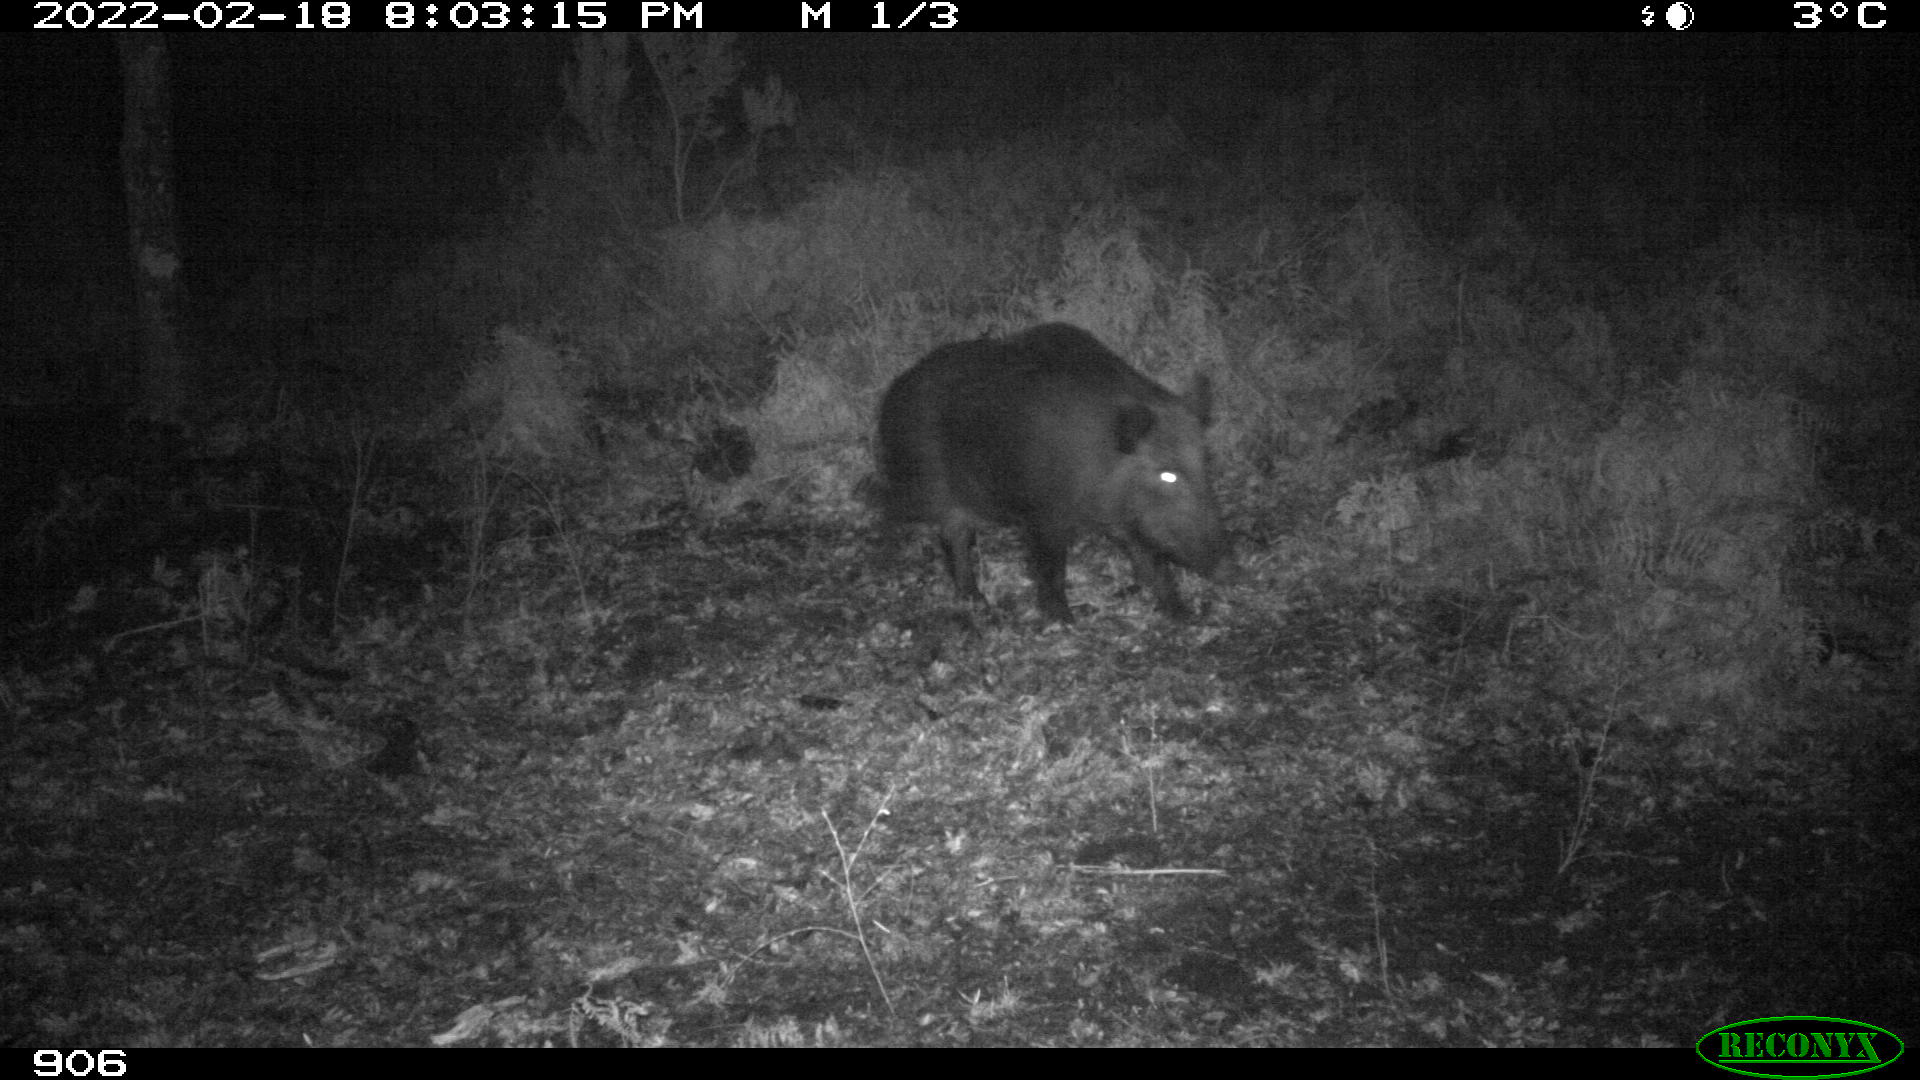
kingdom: Animalia
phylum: Chordata
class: Mammalia
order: Artiodactyla
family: Suidae
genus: Sus
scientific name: Sus scrofa
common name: Wild boar
